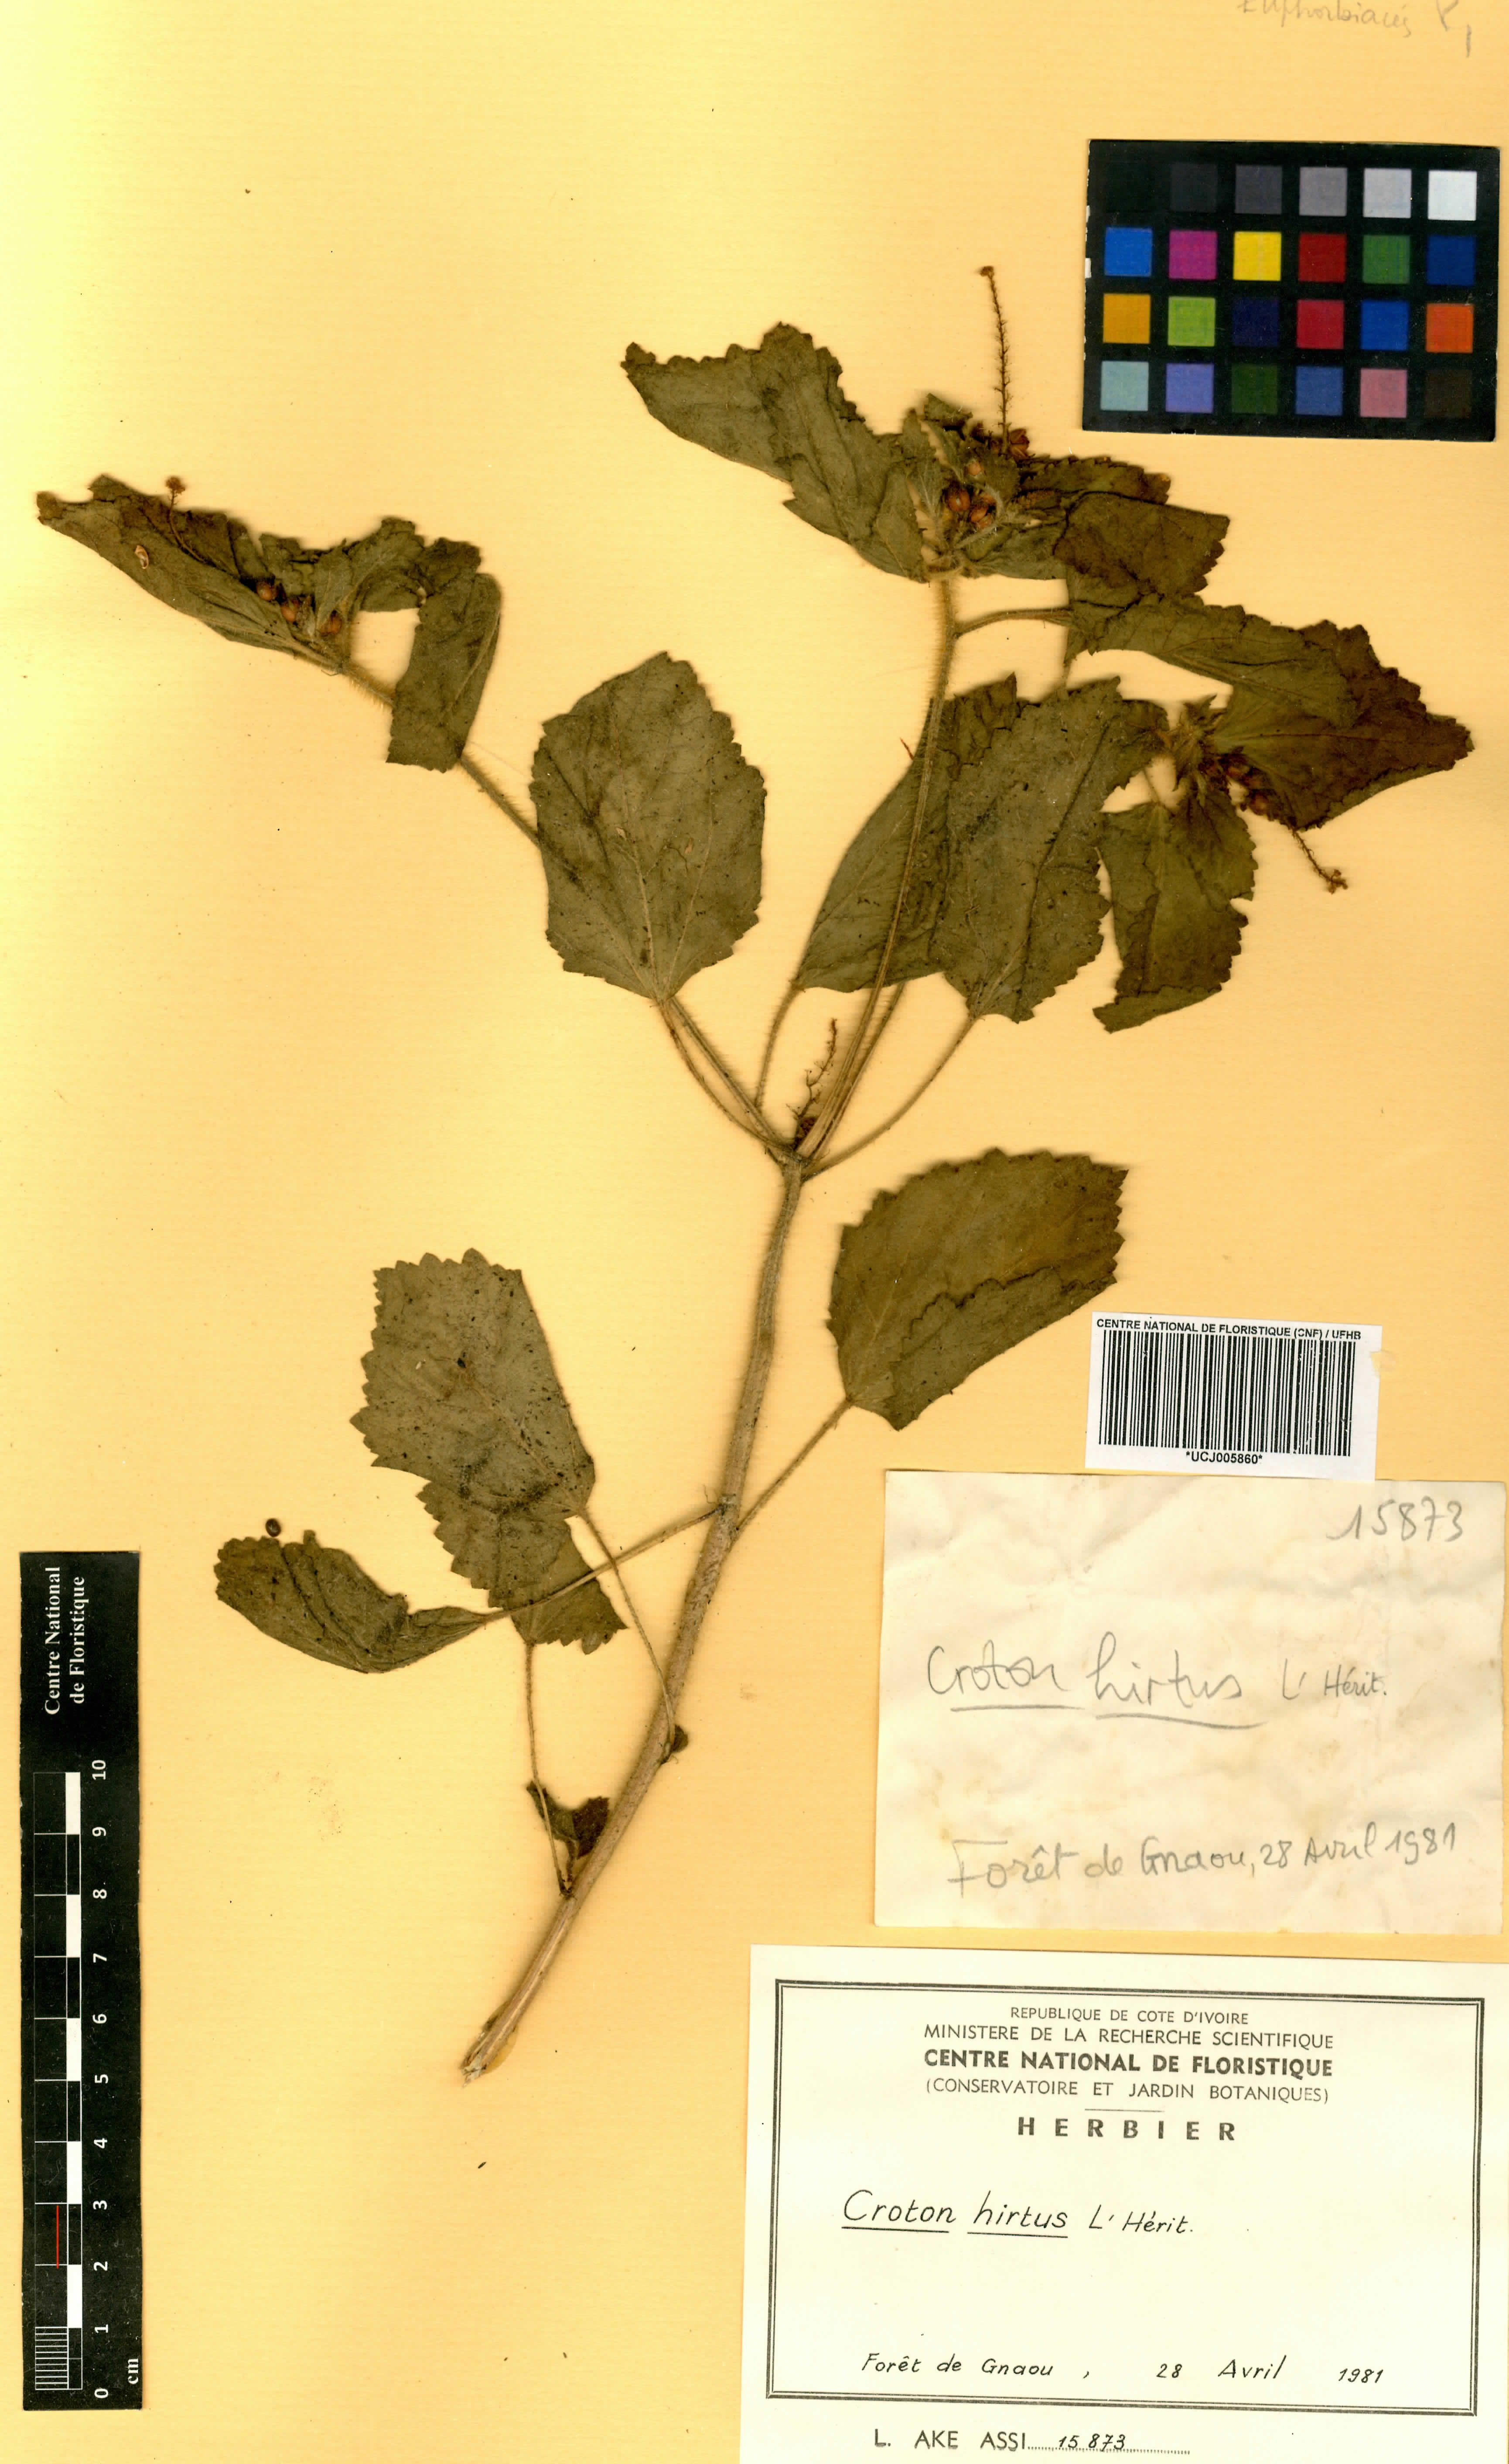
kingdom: Plantae
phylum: Tracheophyta
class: Magnoliopsida
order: Malpighiales
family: Euphorbiaceae
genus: Croton
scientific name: Croton hirtus
